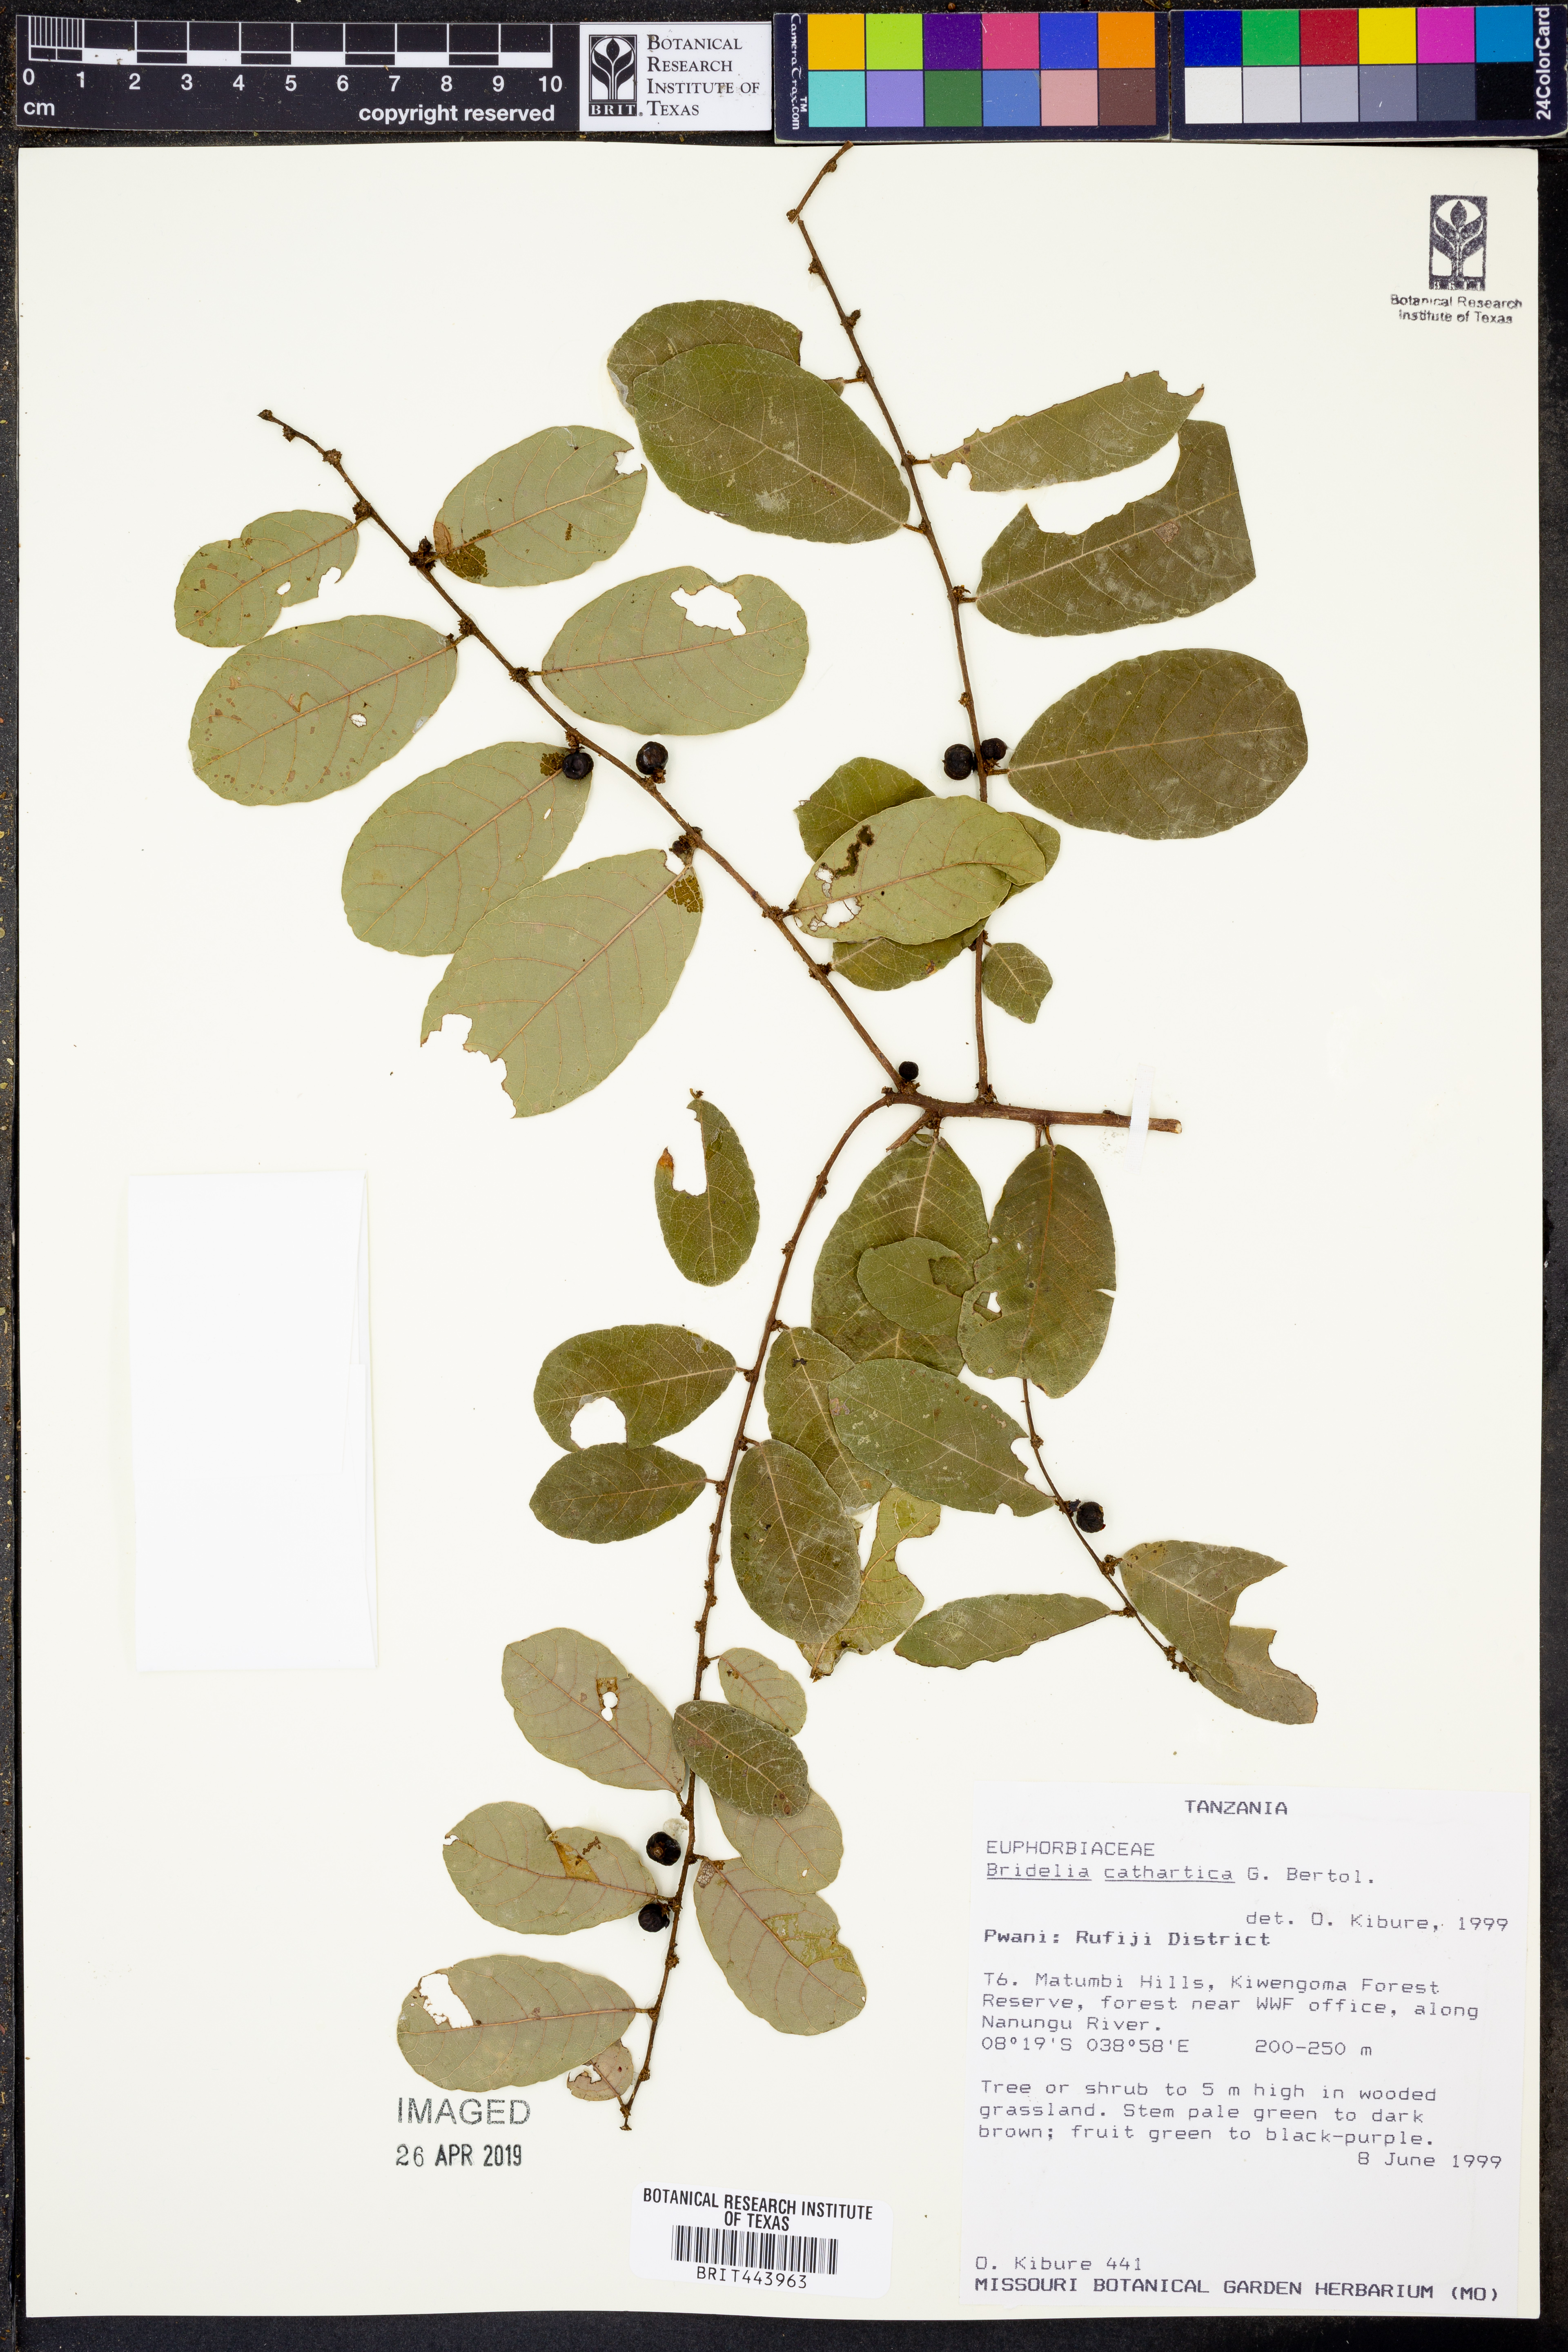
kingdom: Plantae
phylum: Tracheophyta
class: Magnoliopsida
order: Malpighiales
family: Phyllanthaceae
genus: Bridelia
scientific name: Bridelia cathartica
